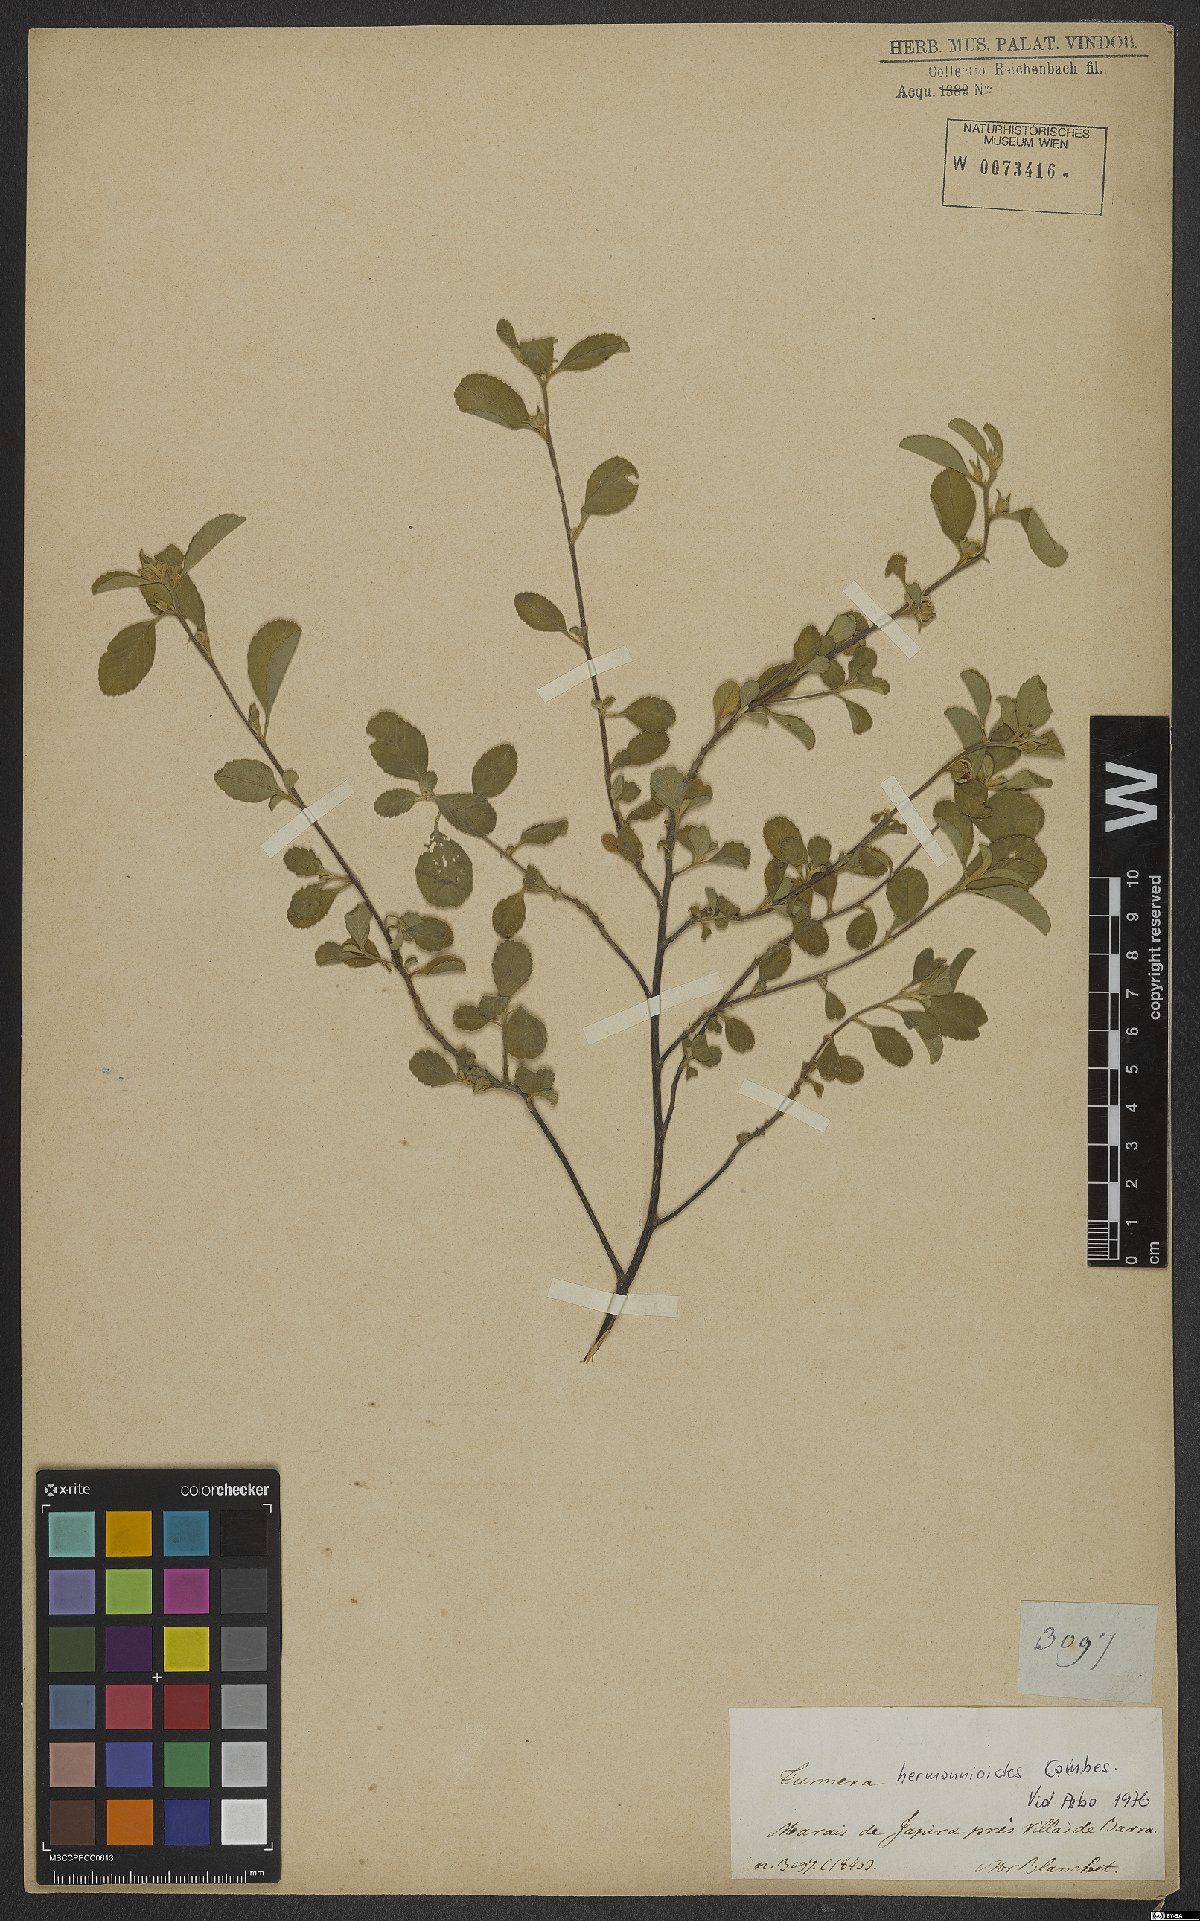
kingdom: Plantae
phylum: Tracheophyta
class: Magnoliopsida
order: Malpighiales
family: Turneraceae
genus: Turnera
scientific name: Turnera hermannioides
